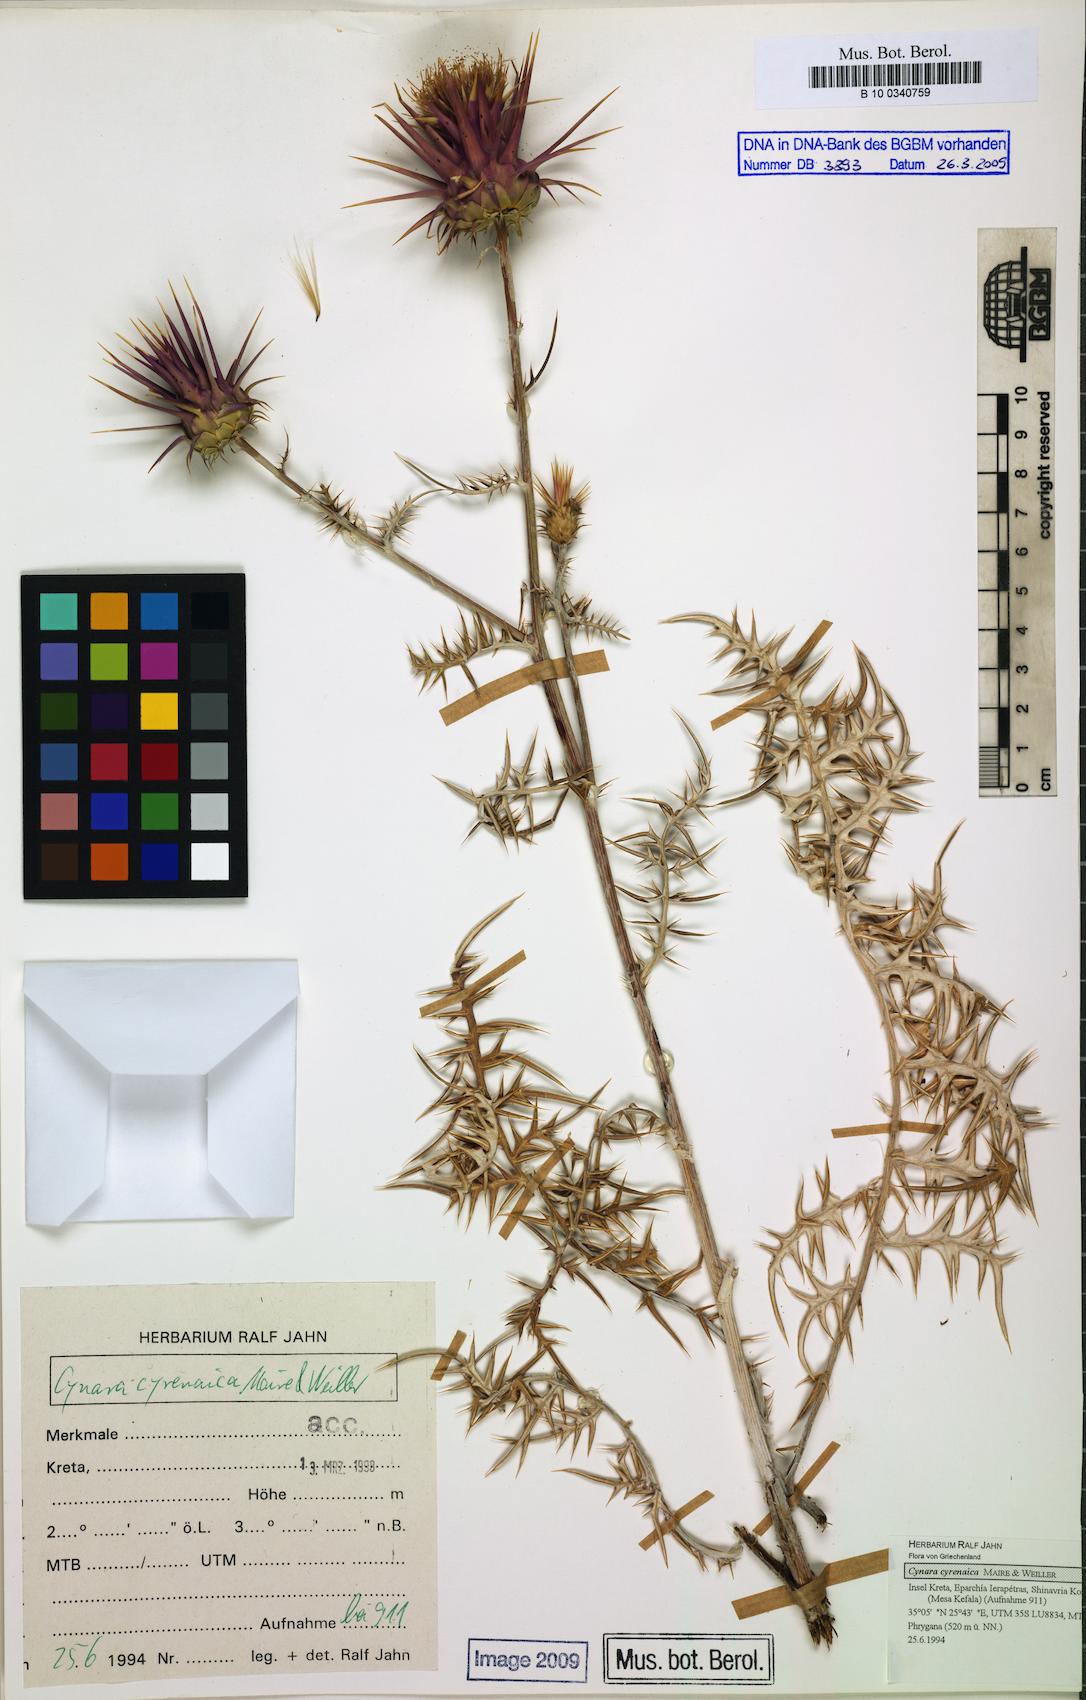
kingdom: Plantae
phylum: Tracheophyta
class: Magnoliopsida
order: Asterales
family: Asteraceae
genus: Cynara
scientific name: Cynara cyrenaica
